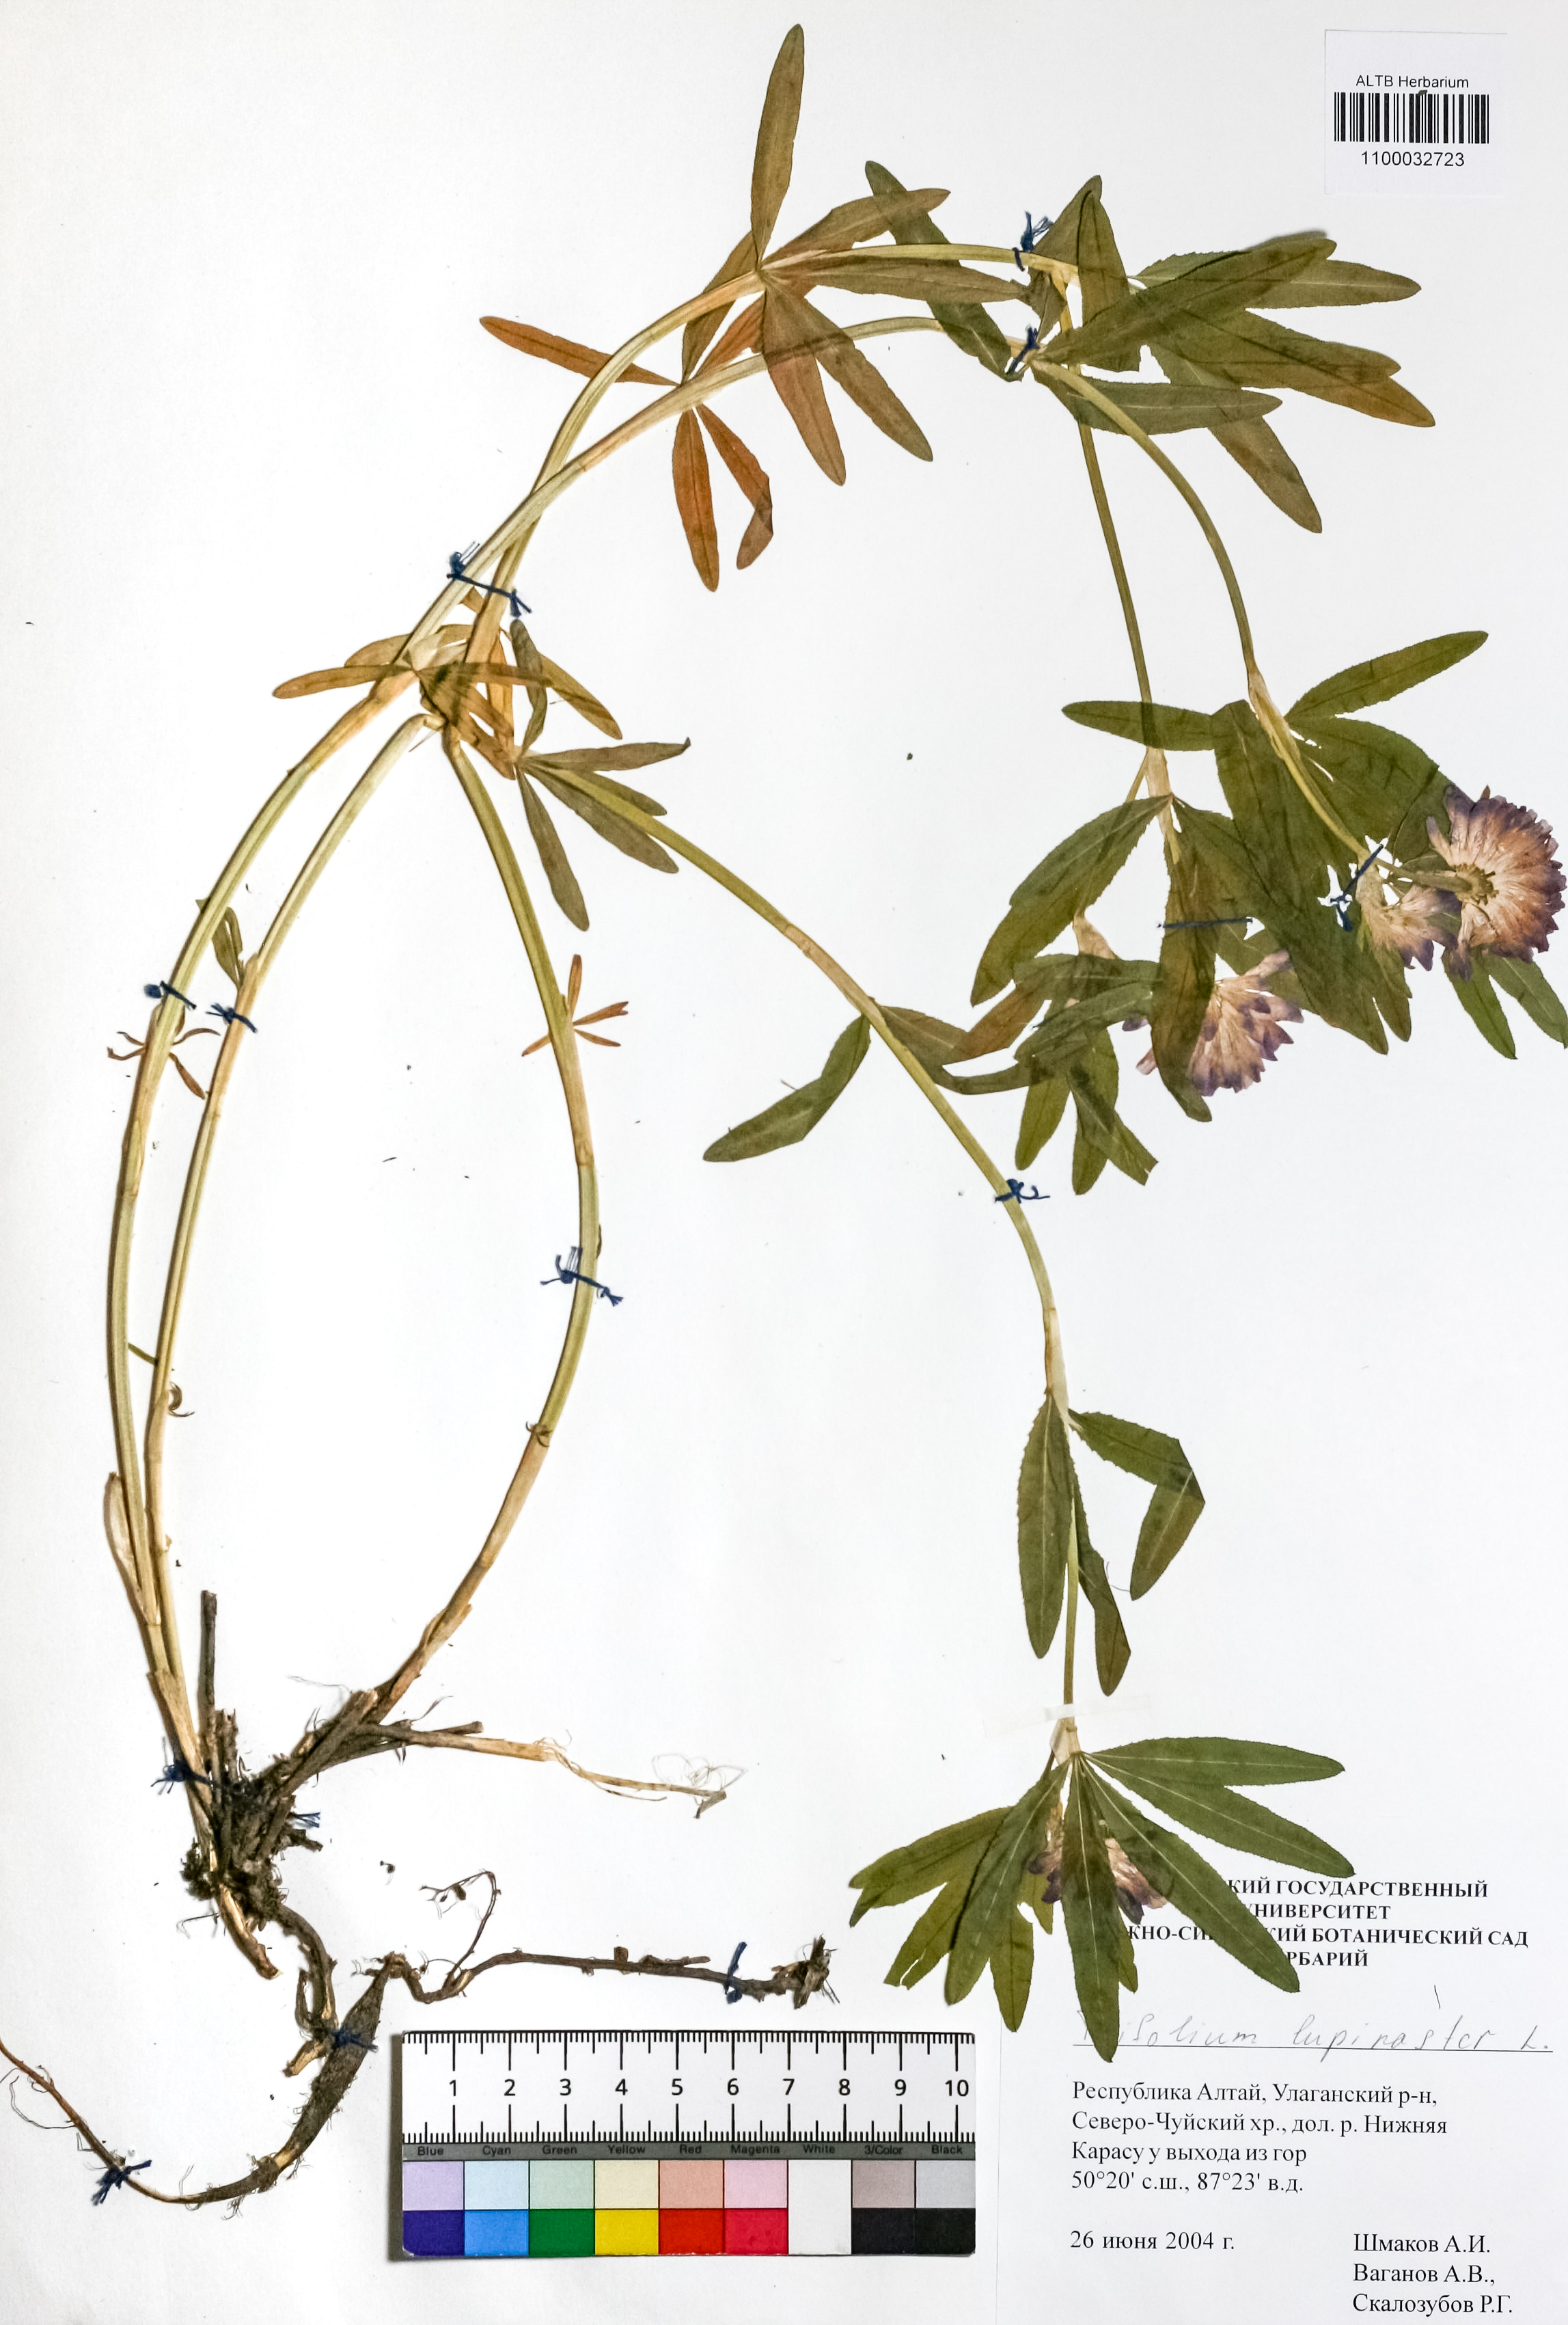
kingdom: Plantae
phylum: Tracheophyta
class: Magnoliopsida
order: Fabales
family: Fabaceae
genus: Trifolium
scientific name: Trifolium lupinaster
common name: Lupine clover
